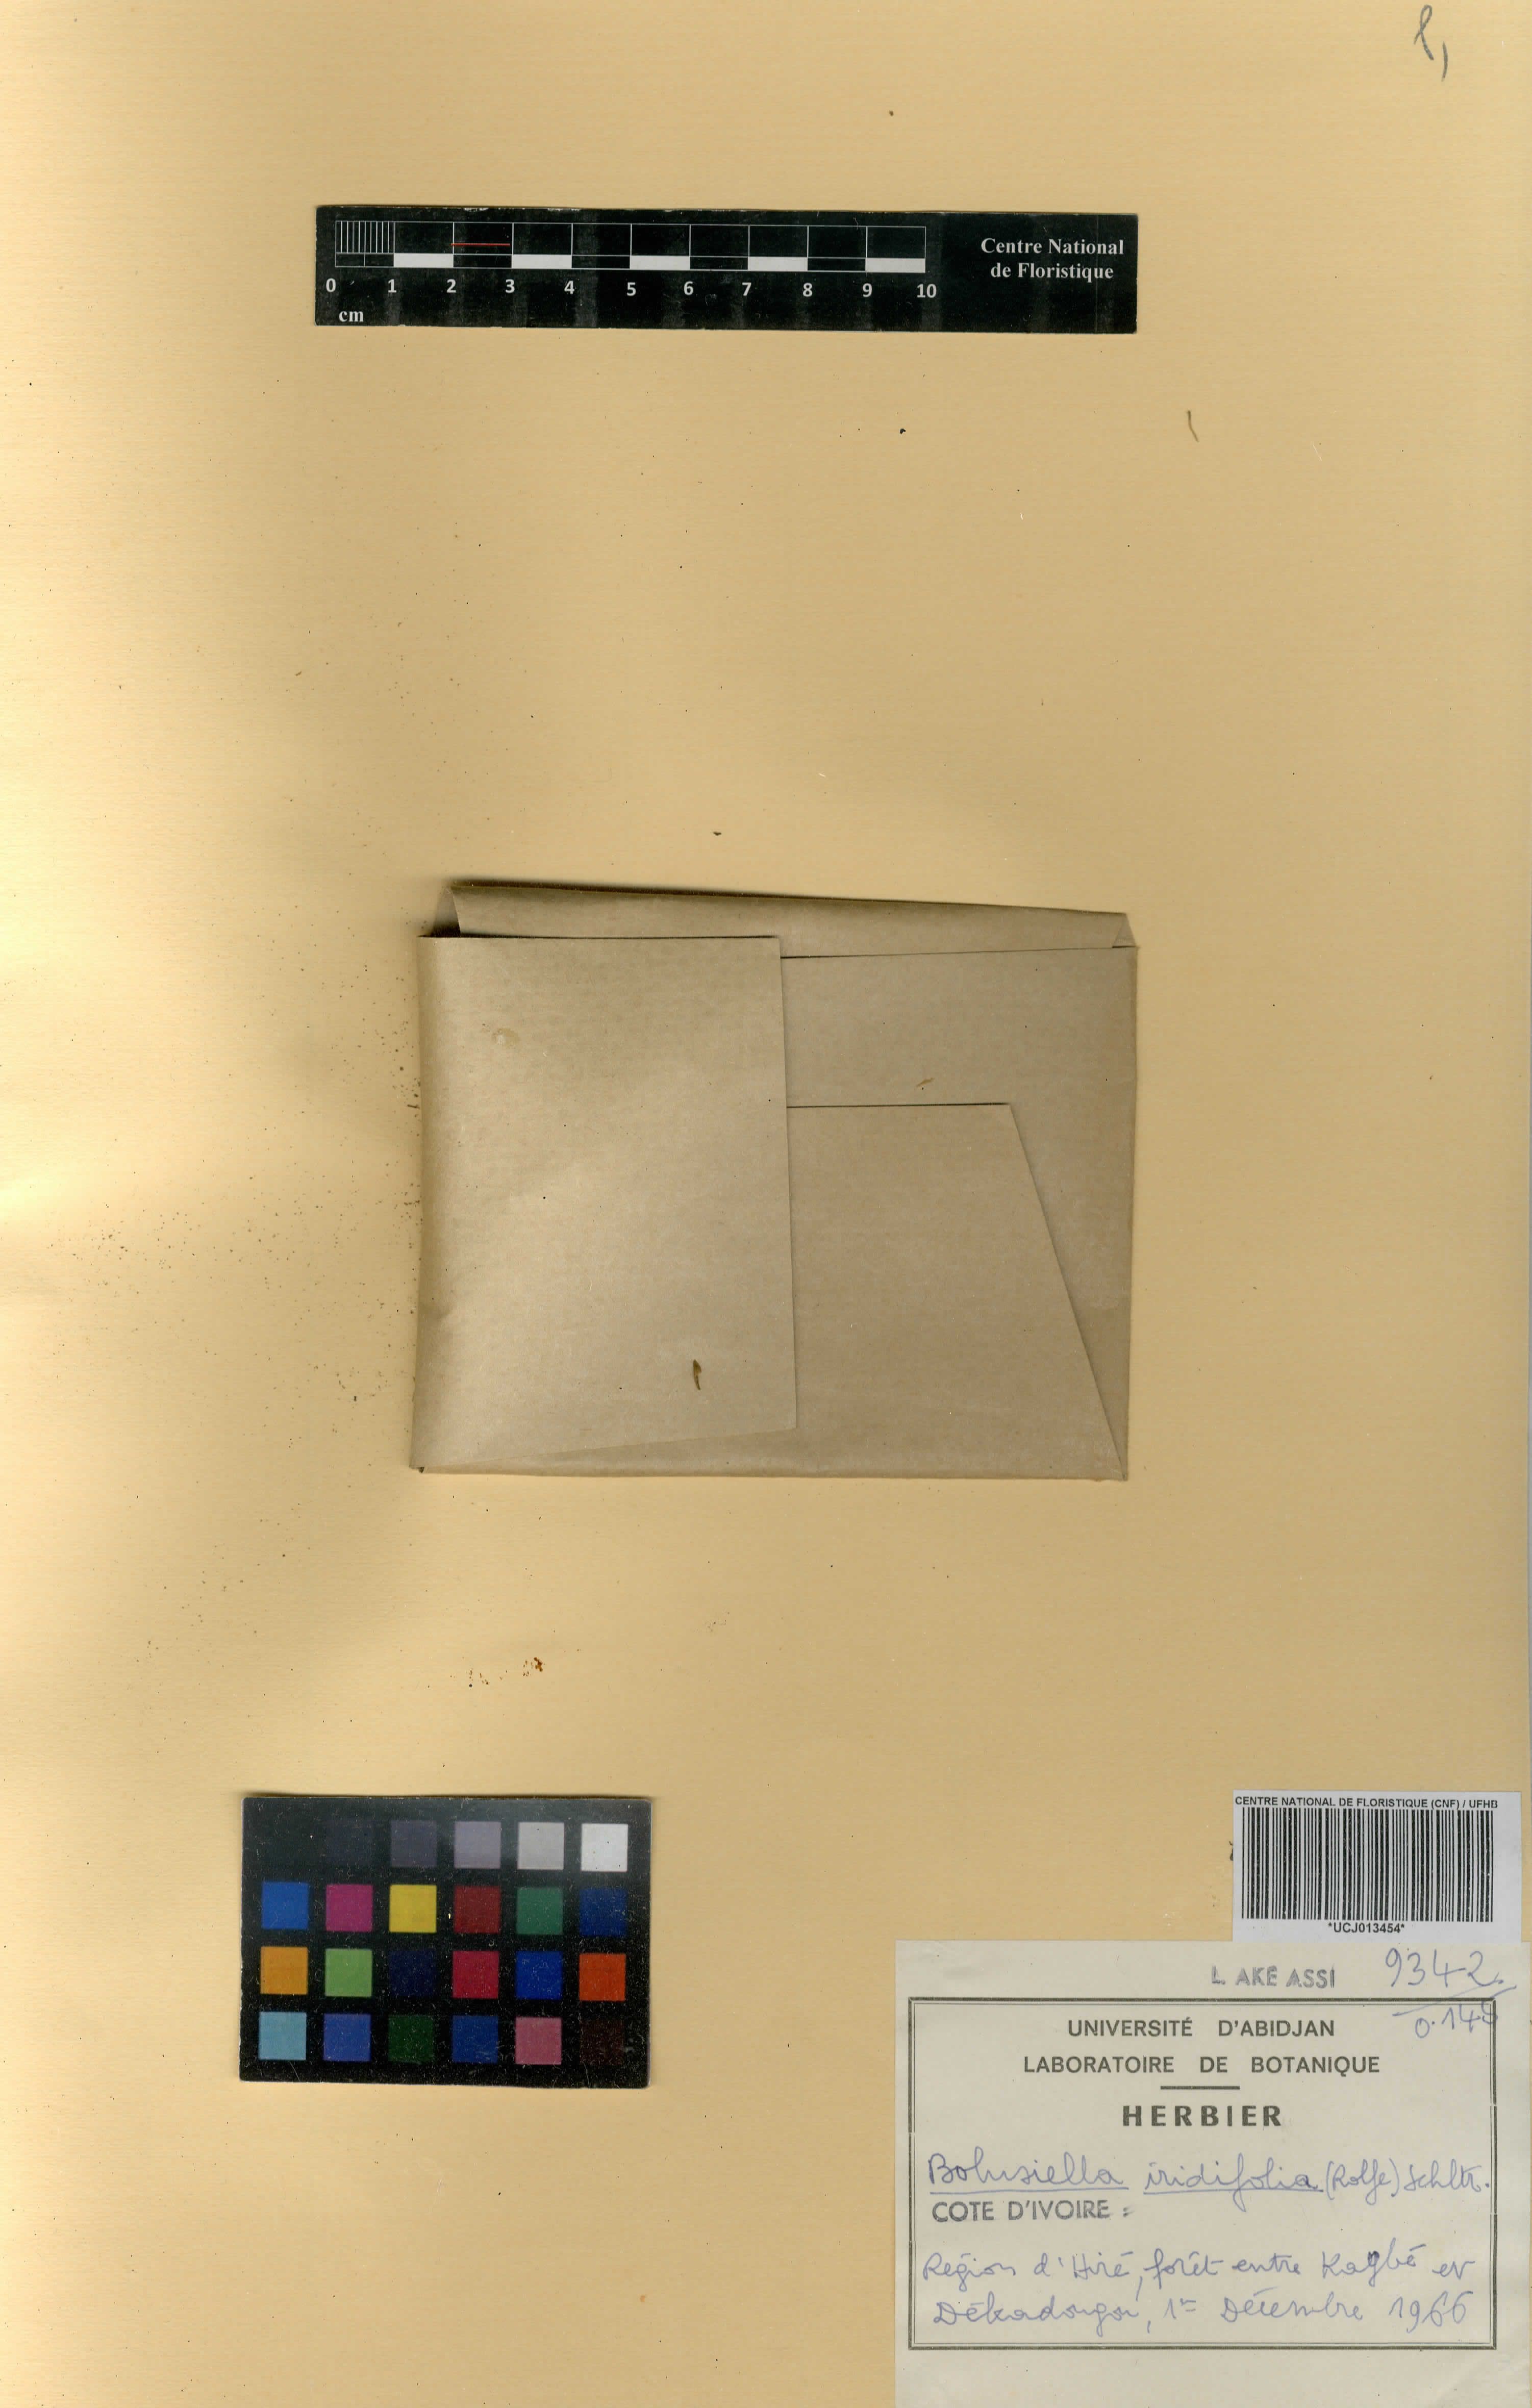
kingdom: Plantae
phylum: Tracheophyta
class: Liliopsida
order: Asparagales
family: Orchidaceae
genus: Bolusiella
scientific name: Bolusiella iridifolia
